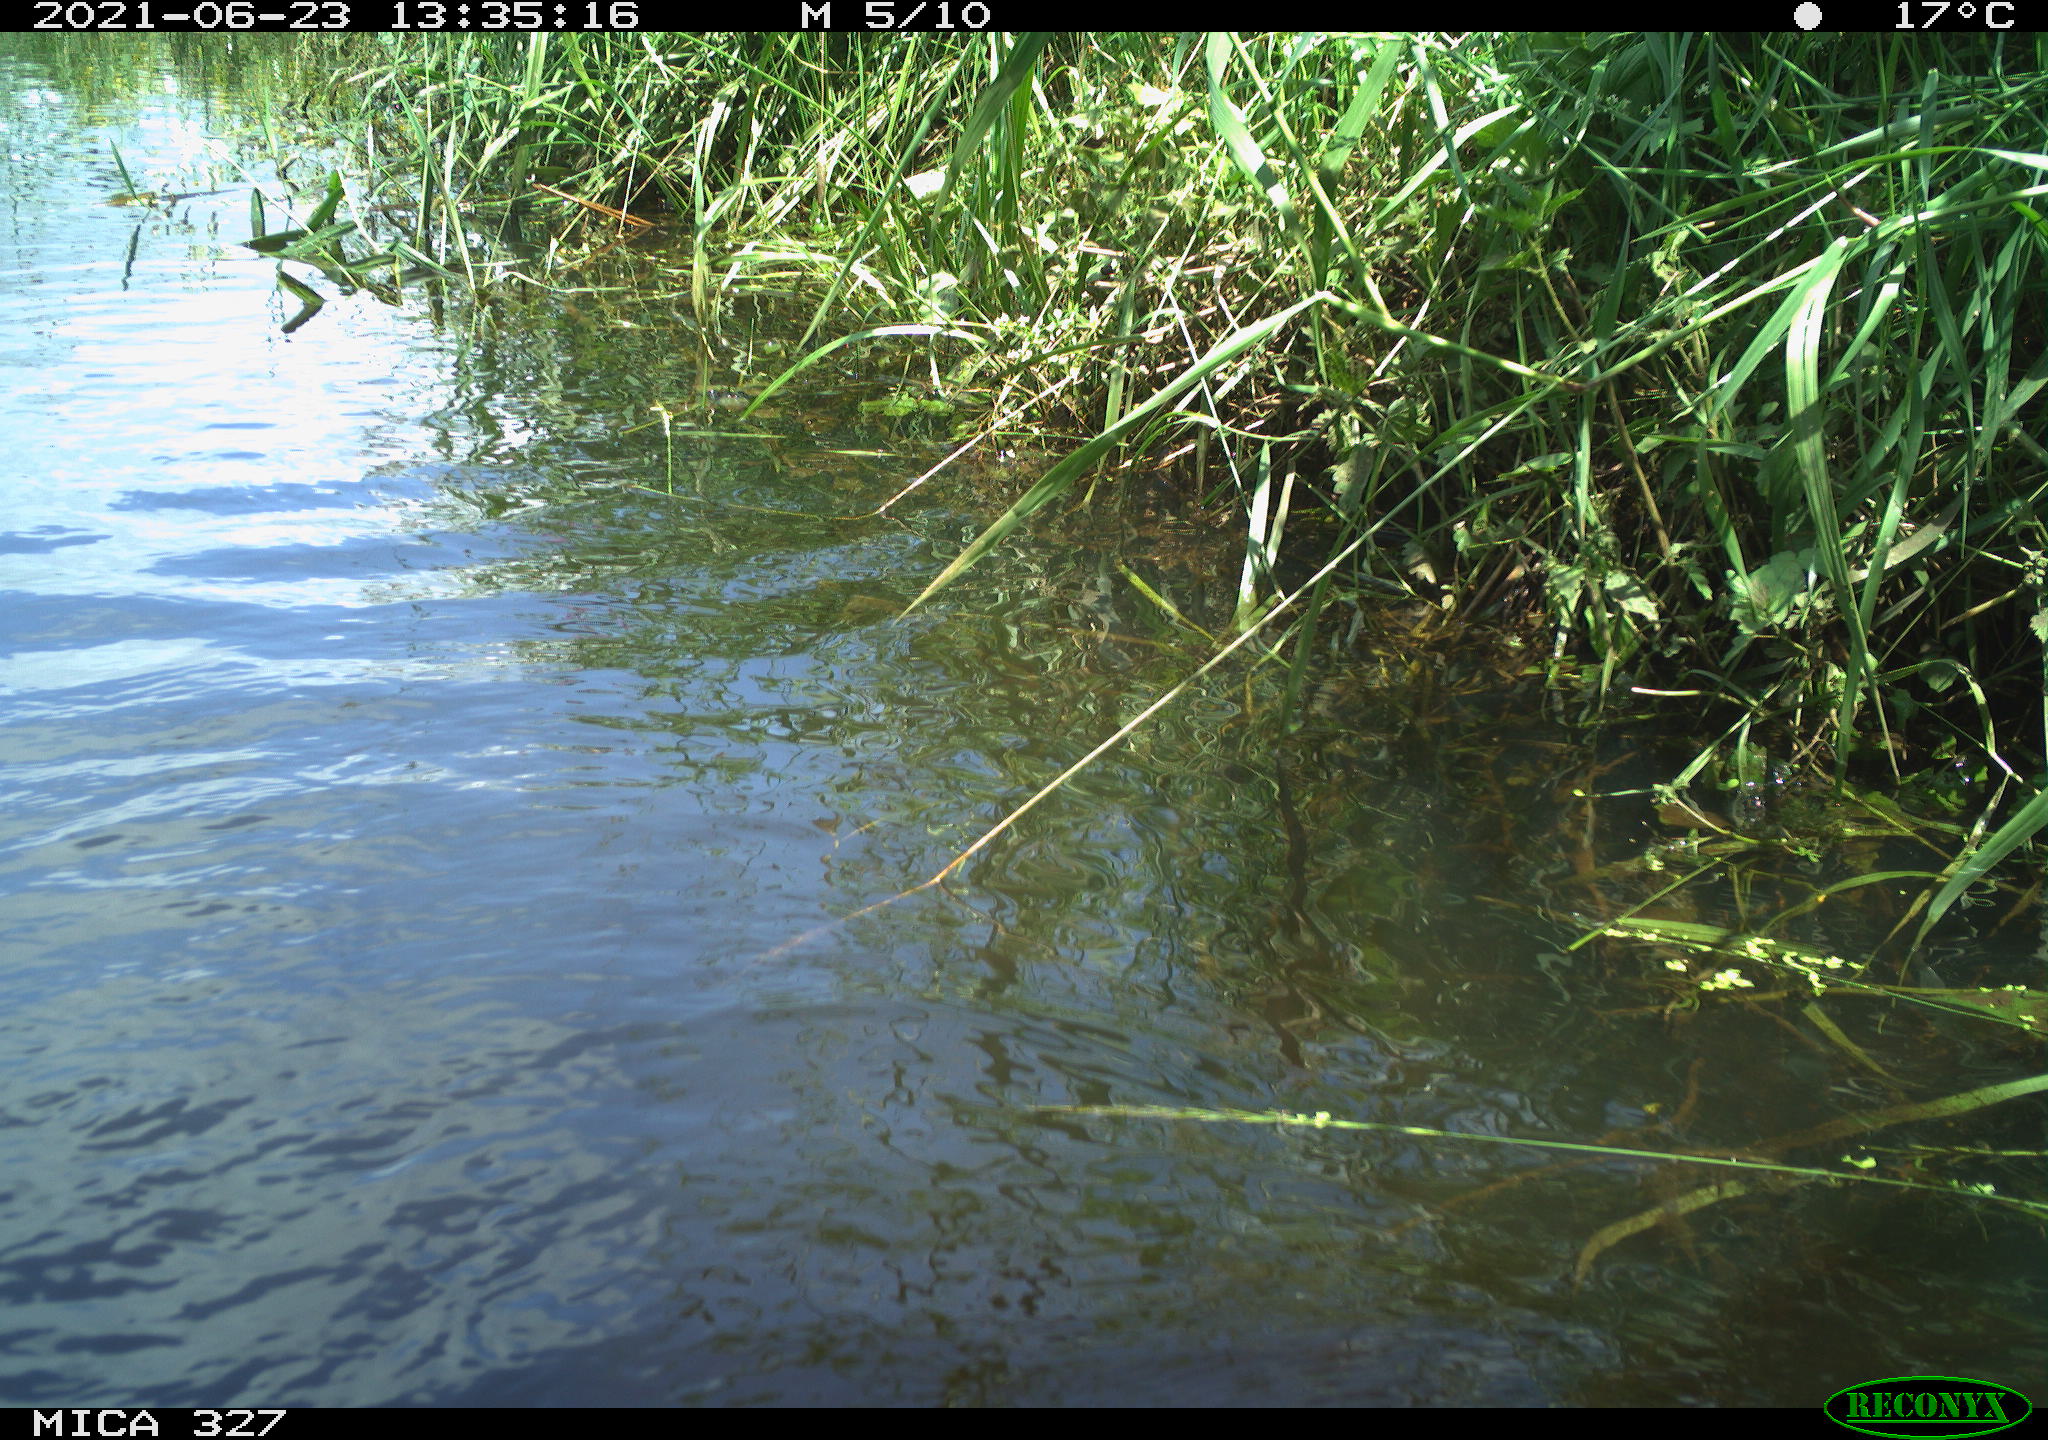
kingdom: Animalia
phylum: Chordata
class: Mammalia
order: Rodentia
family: Cricetidae
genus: Ondatra
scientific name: Ondatra zibethicus
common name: Muskrat
